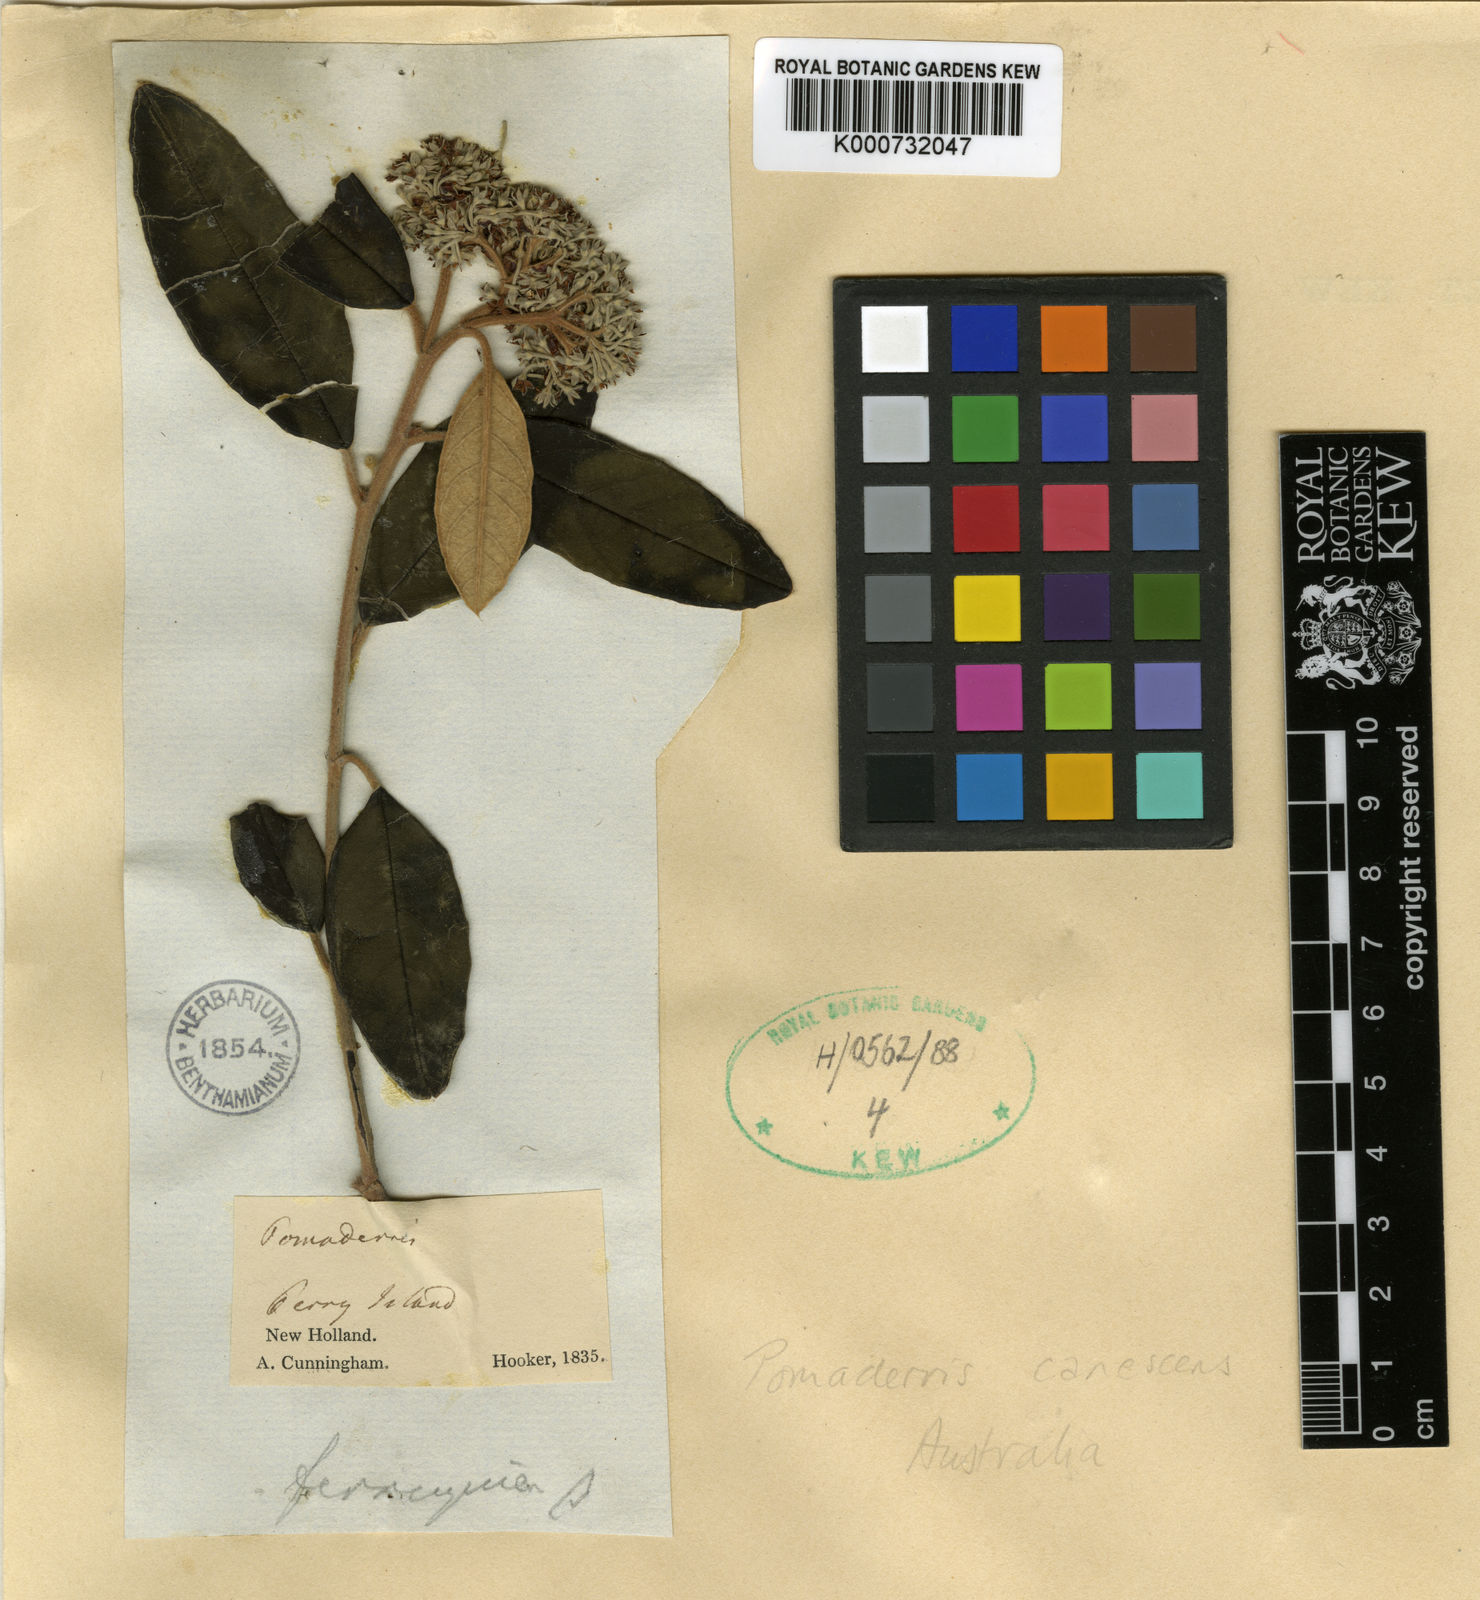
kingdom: Plantae
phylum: Tracheophyta
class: Magnoliopsida
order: Rosales
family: Rhamnaceae
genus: Pomaderris
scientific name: Pomaderris
